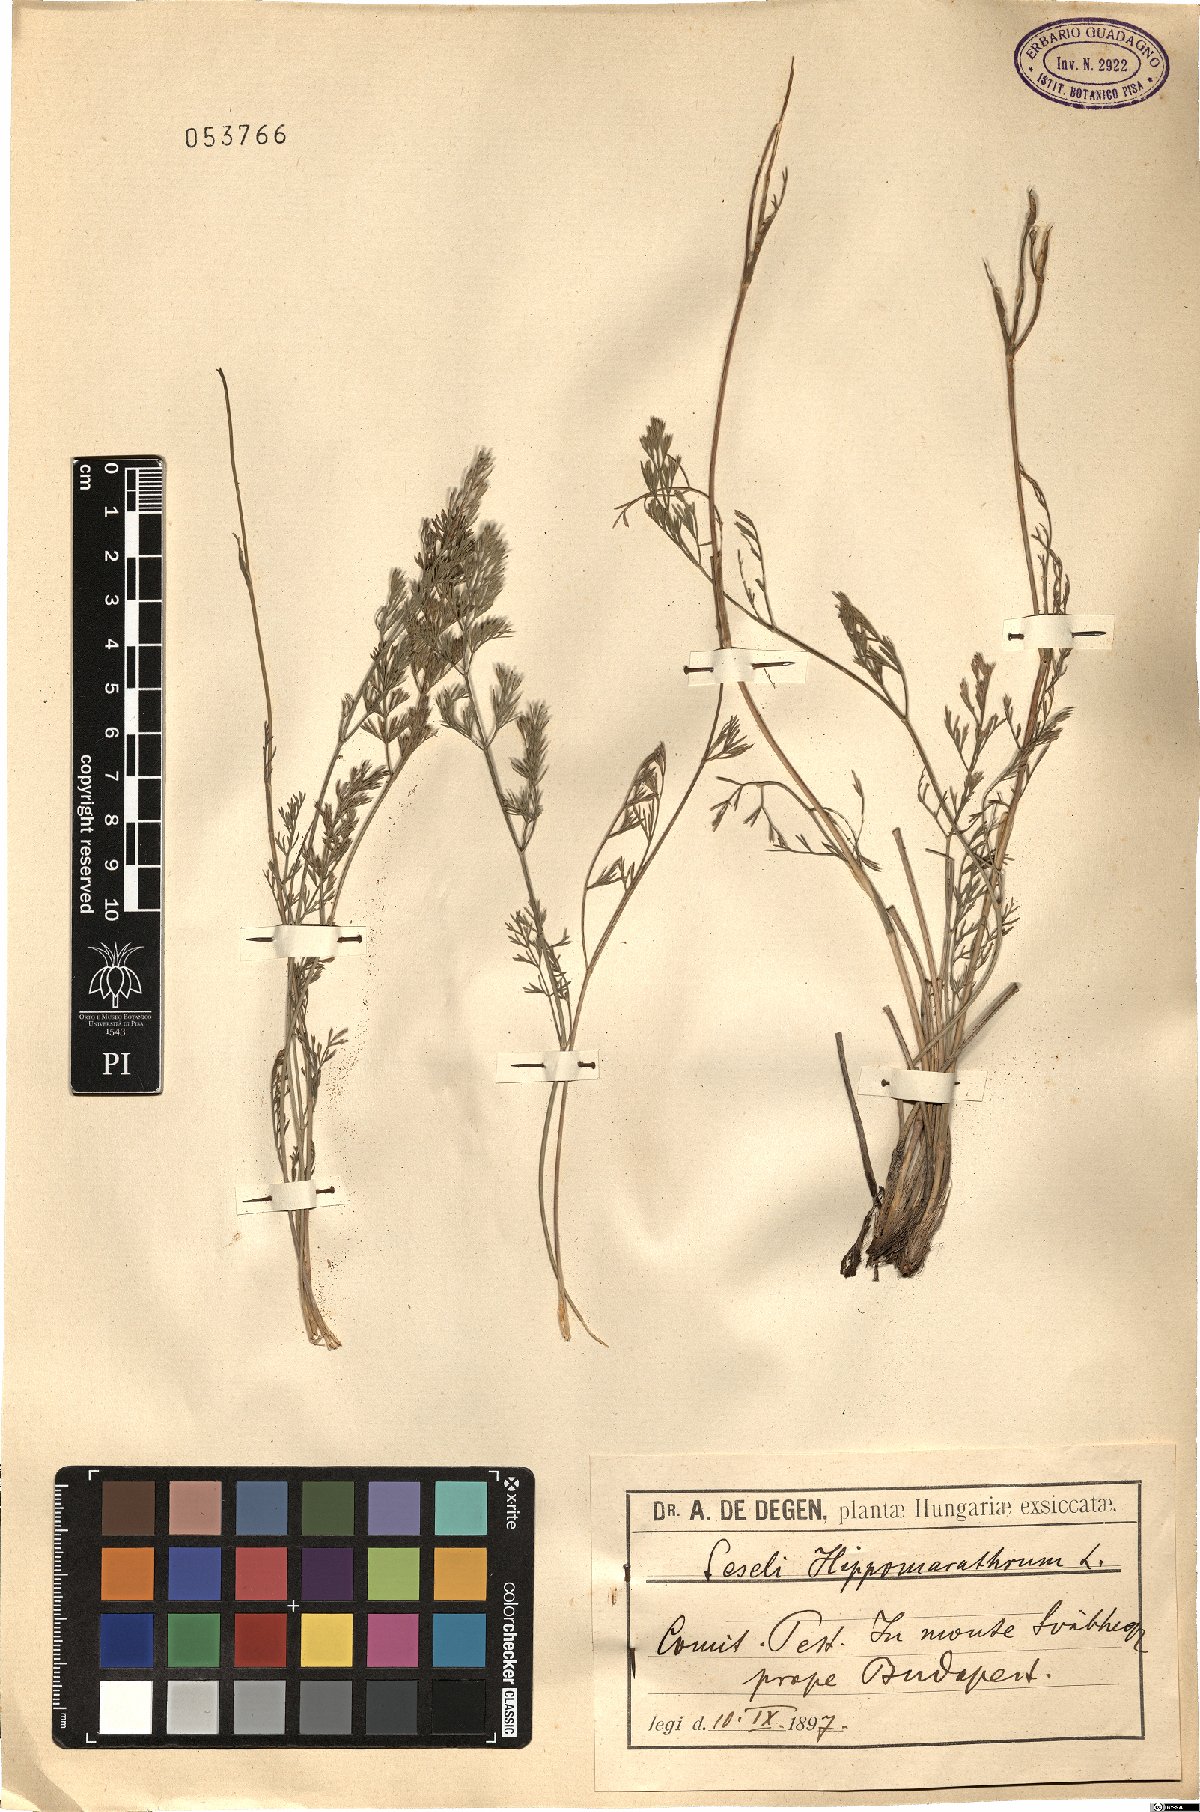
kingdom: Plantae
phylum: Tracheophyta
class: Magnoliopsida
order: Apiales
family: Apiaceae
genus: Hippomarathrum
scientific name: Hippomarathrum vulgare
